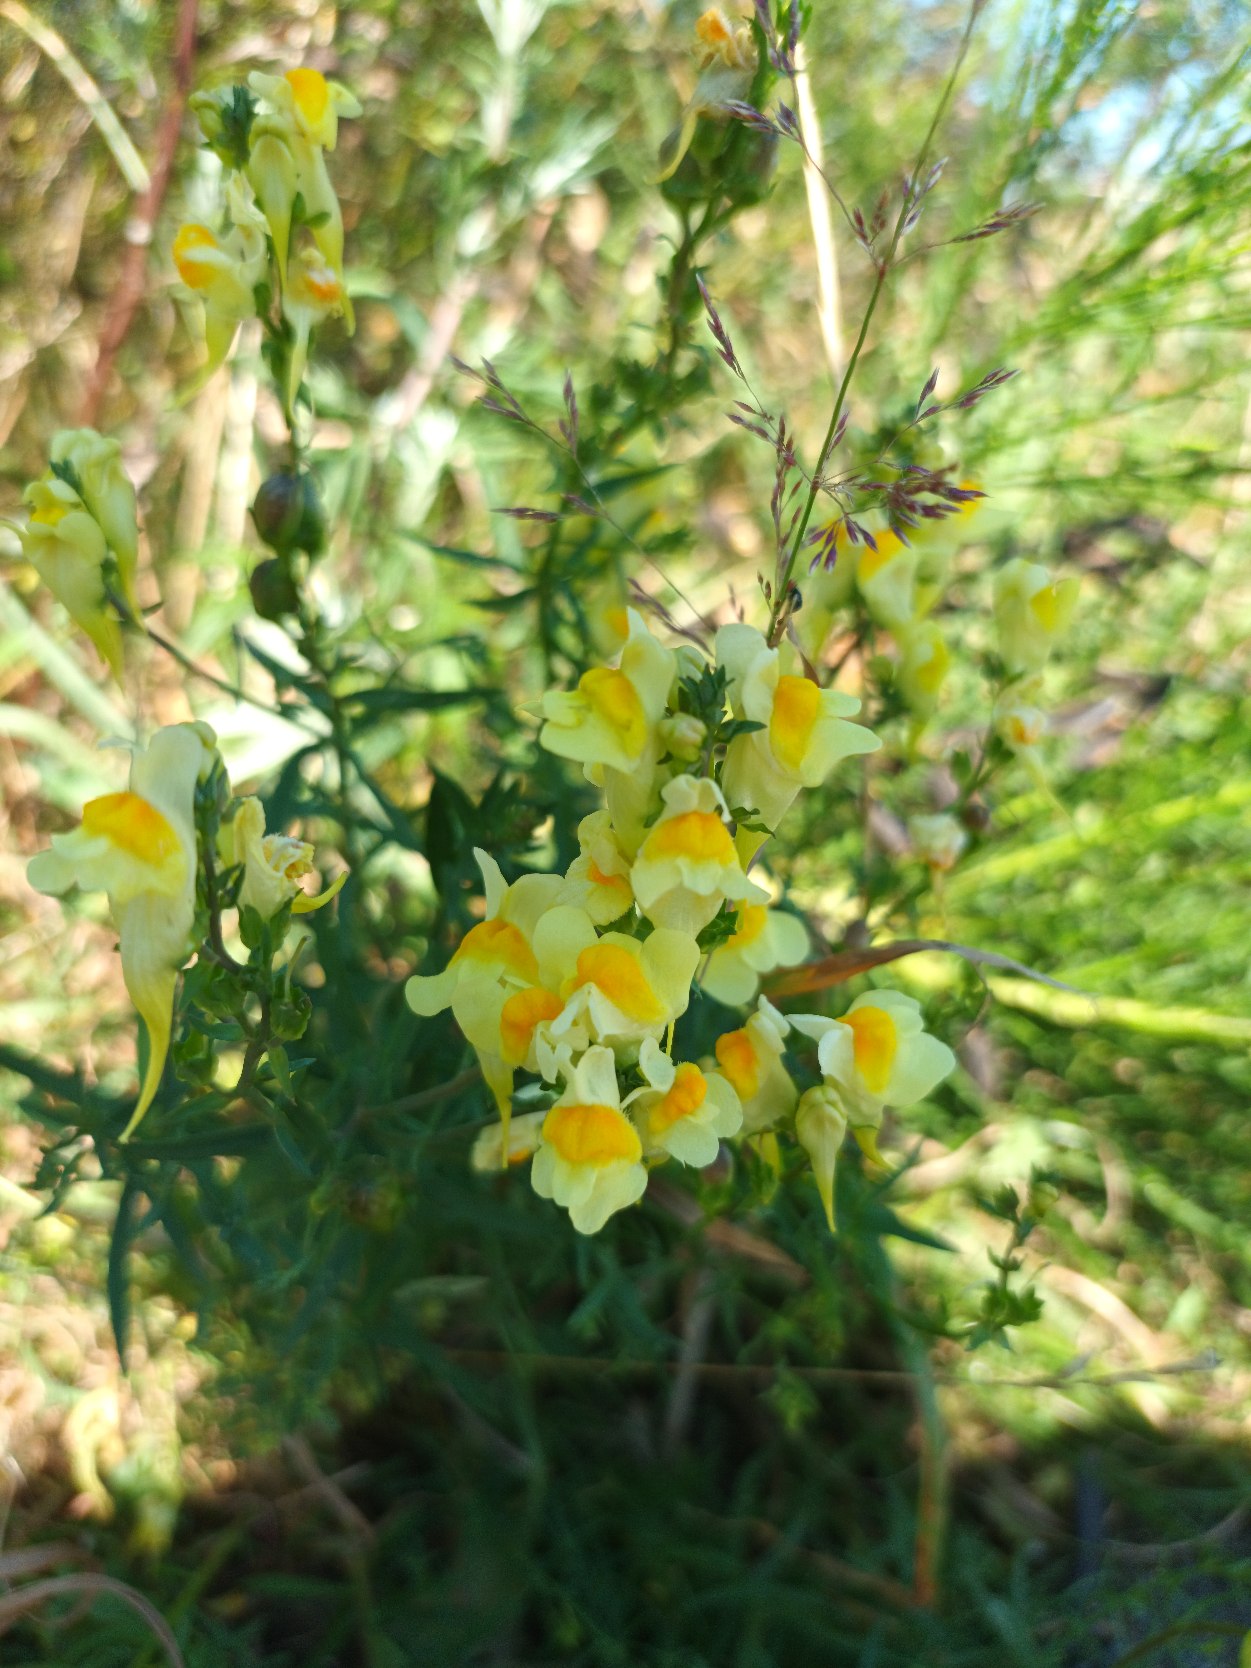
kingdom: Plantae
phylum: Tracheophyta
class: Magnoliopsida
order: Lamiales
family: Plantaginaceae
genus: Linaria
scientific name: Linaria vulgaris
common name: Almindelig torskemund
